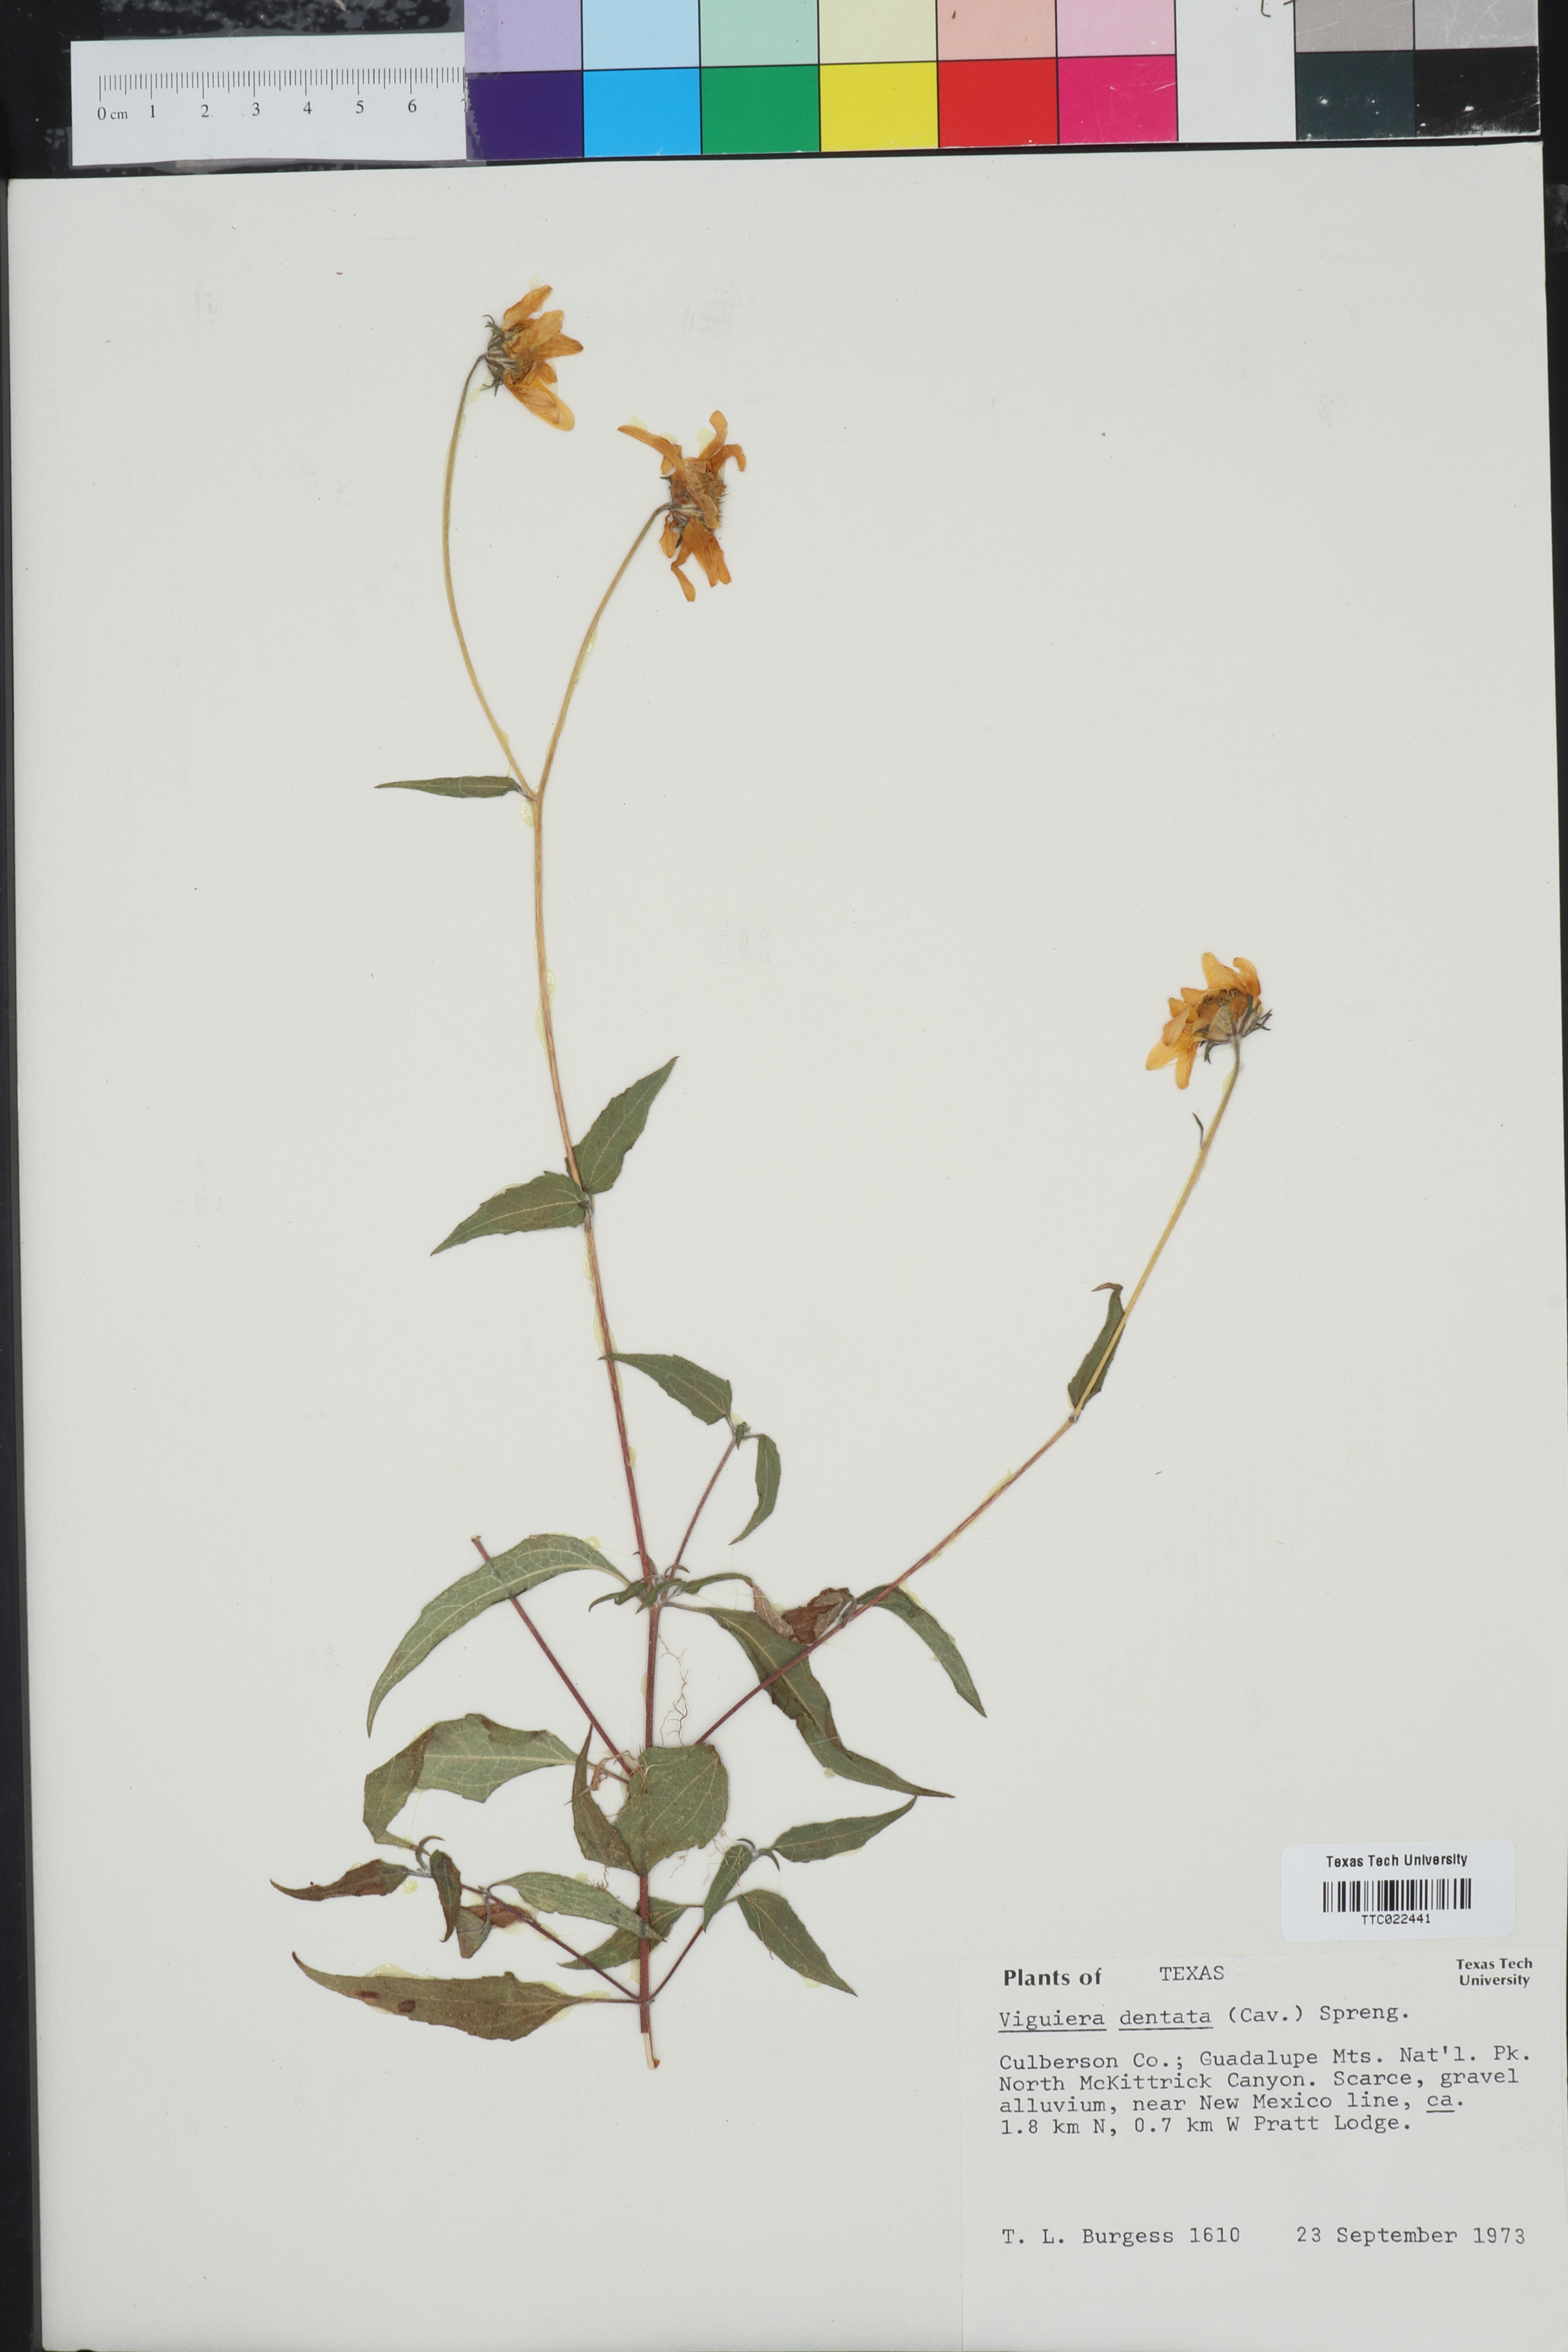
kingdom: Plantae
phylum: Tracheophyta
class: Magnoliopsida
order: Asterales
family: Asteraceae
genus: Viguiera
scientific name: Viguiera dentata
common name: Toothleaf
